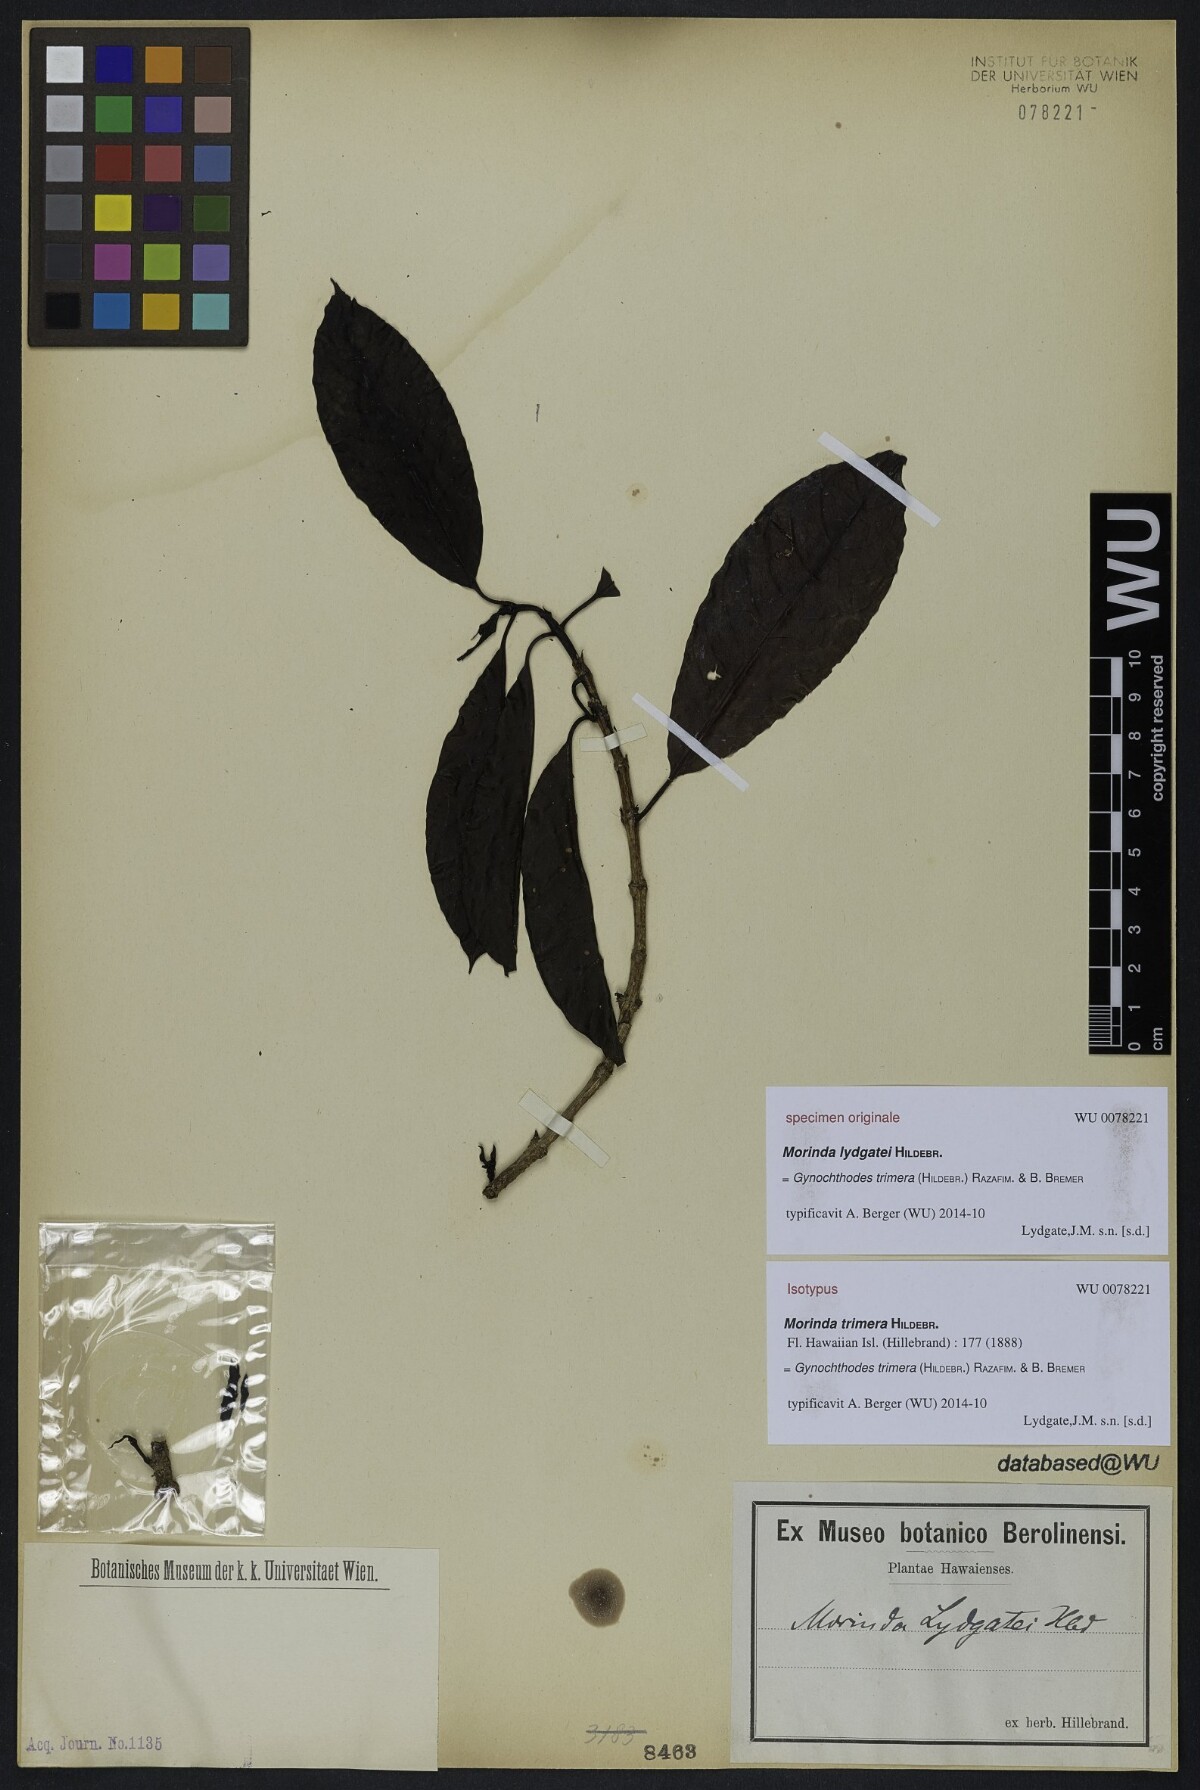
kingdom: Plantae
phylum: Tracheophyta
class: Magnoliopsida
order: Gentianales
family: Rubiaceae
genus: Gynochthodes
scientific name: Gynochthodes trimera
